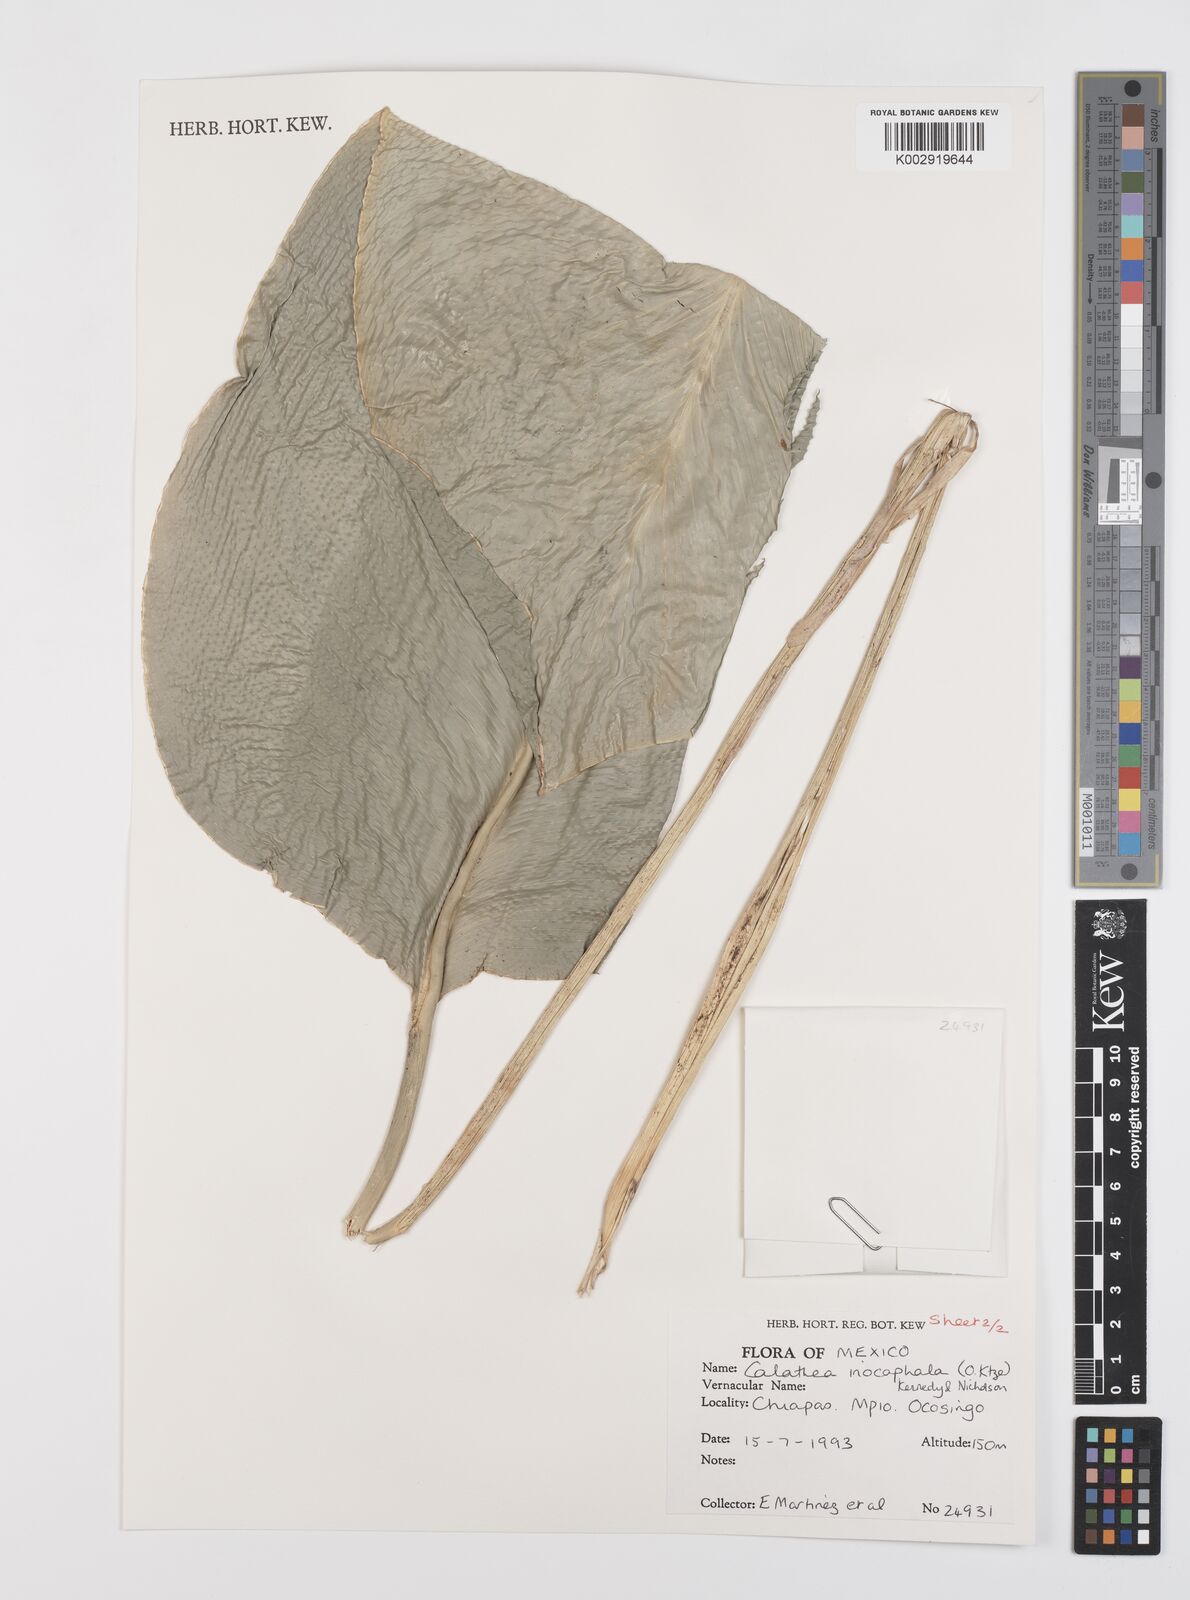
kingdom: Plantae
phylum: Tracheophyta
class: Liliopsida
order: Zingiberales
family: Marantaceae
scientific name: Marantaceae
